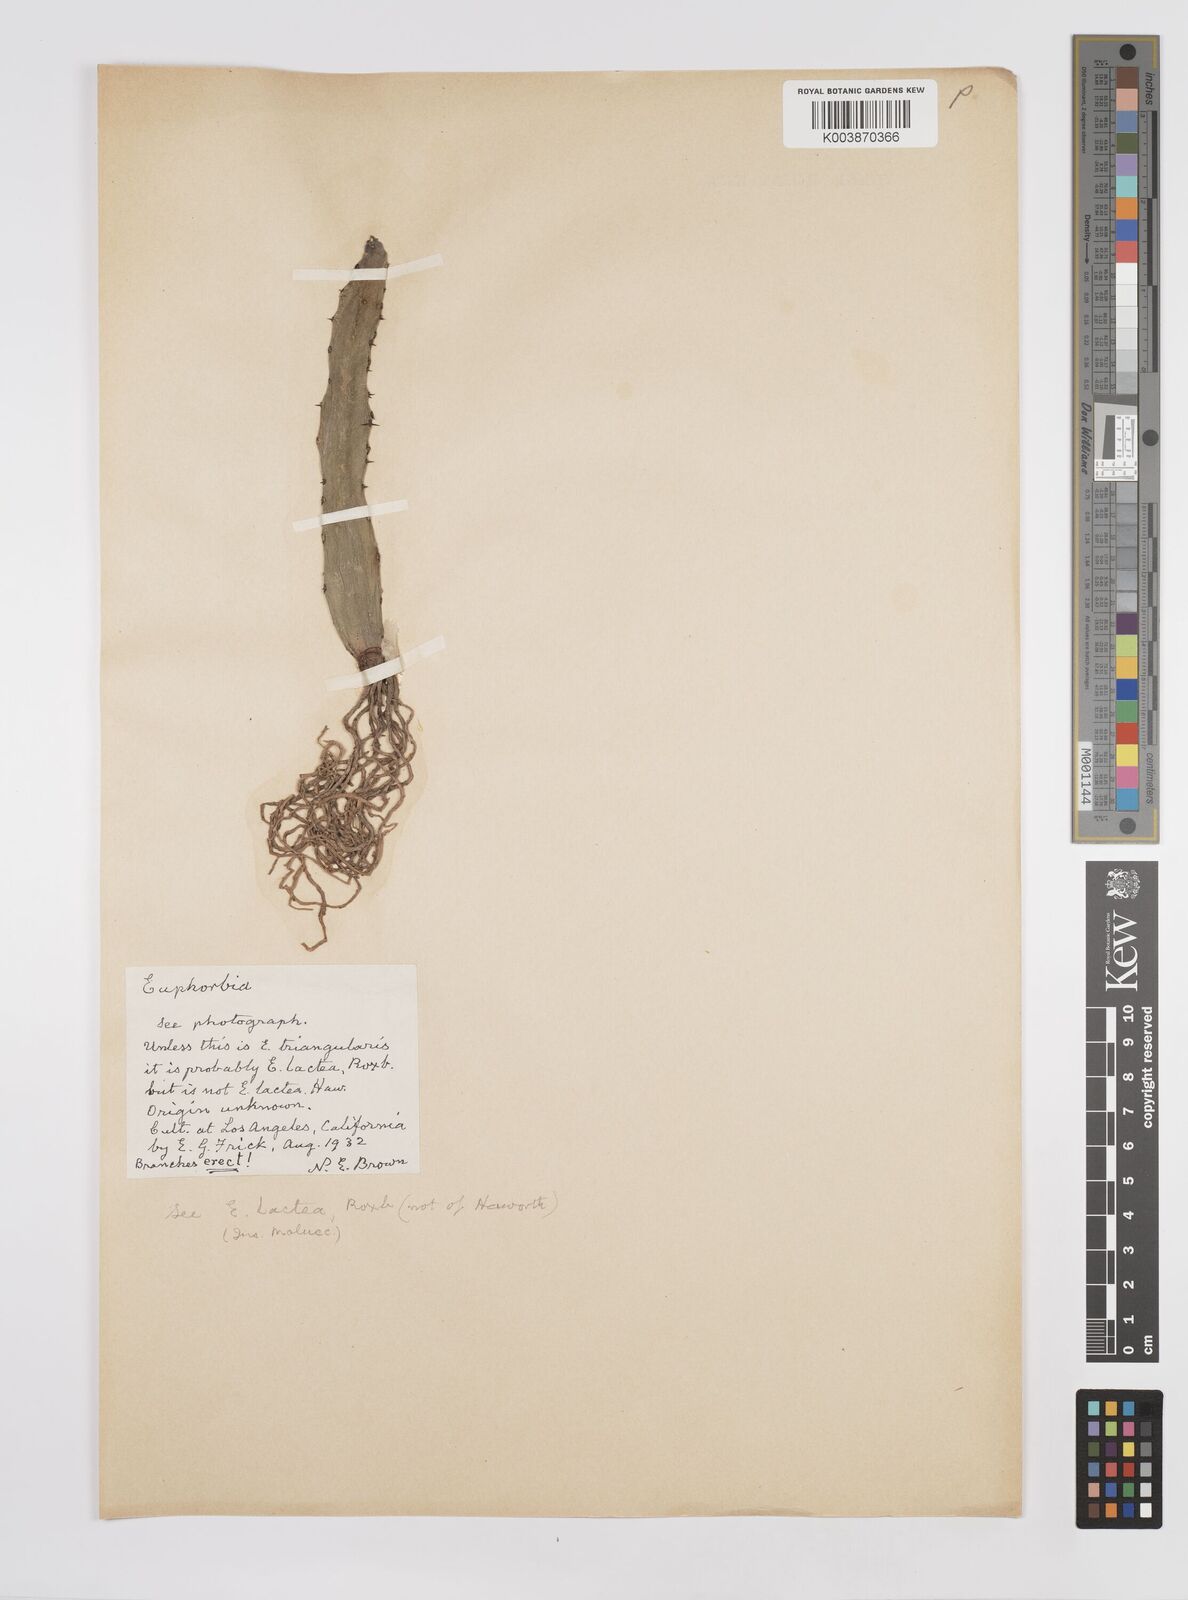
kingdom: Plantae
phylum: Tracheophyta
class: Magnoliopsida
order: Malpighiales
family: Euphorbiaceae
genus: Euphorbia
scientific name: Euphorbia
